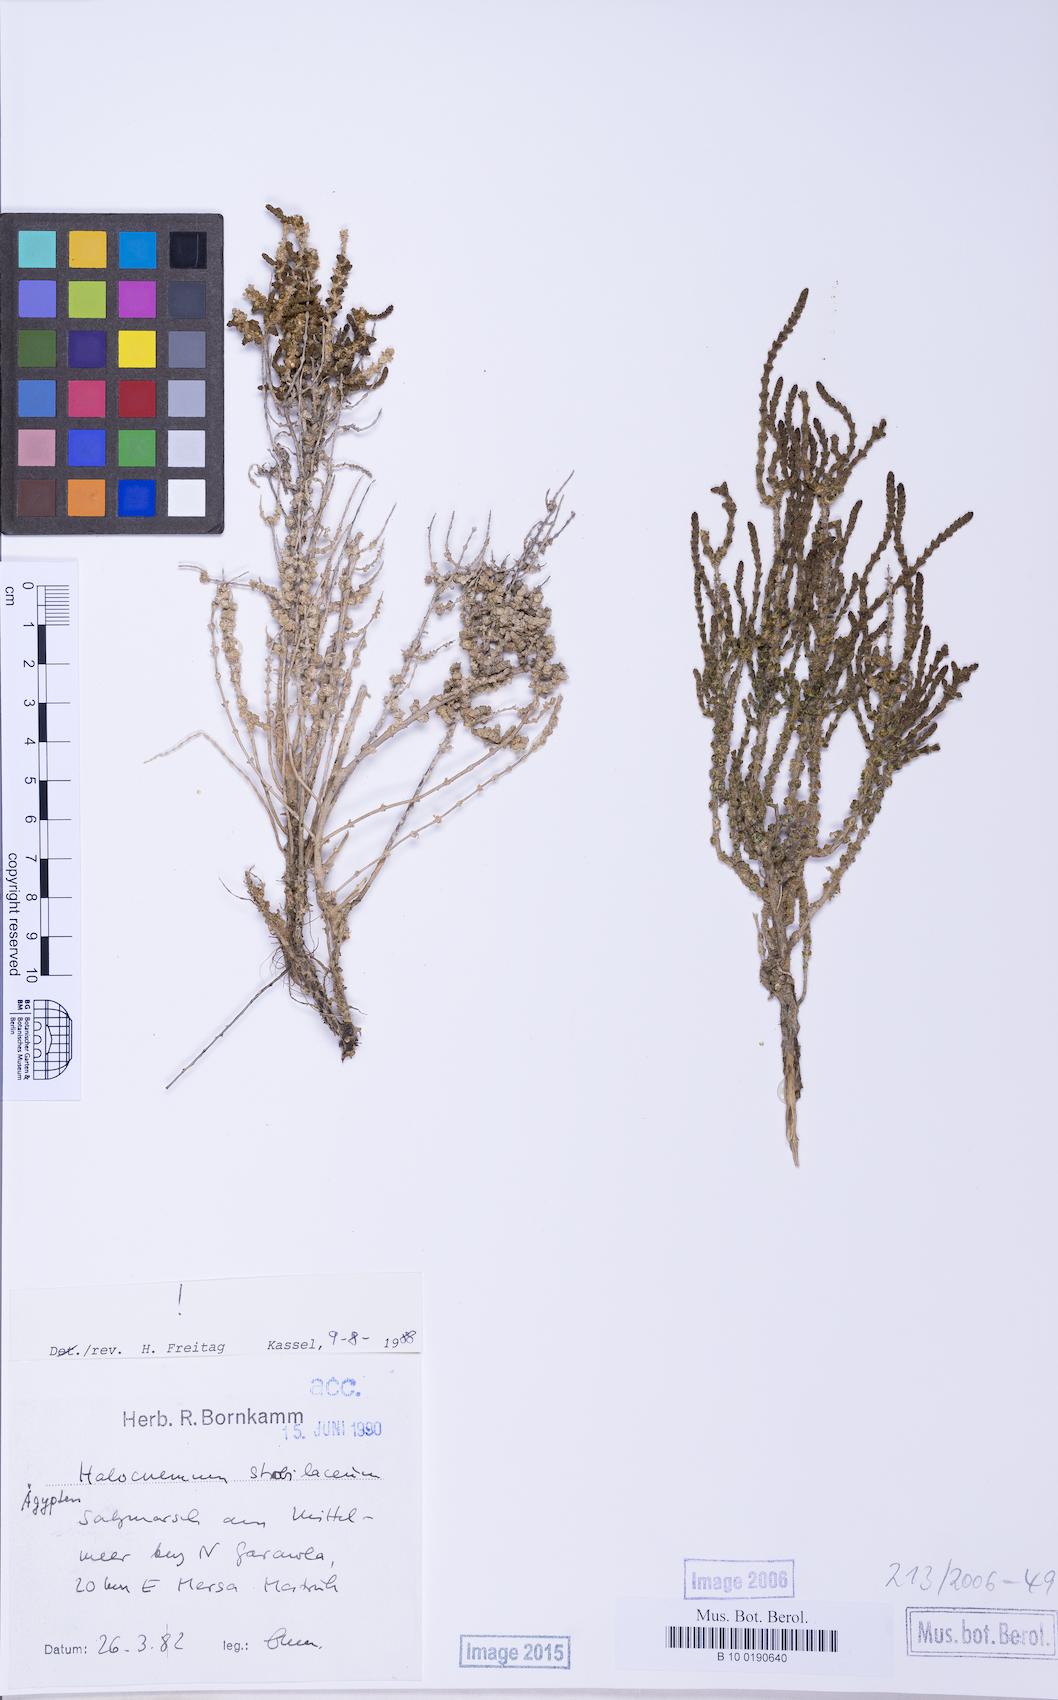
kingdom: Plantae
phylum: Tracheophyta
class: Magnoliopsida
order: Caryophyllales
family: Amaranthaceae
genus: Halocnemum
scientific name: Halocnemum strobilaceum
